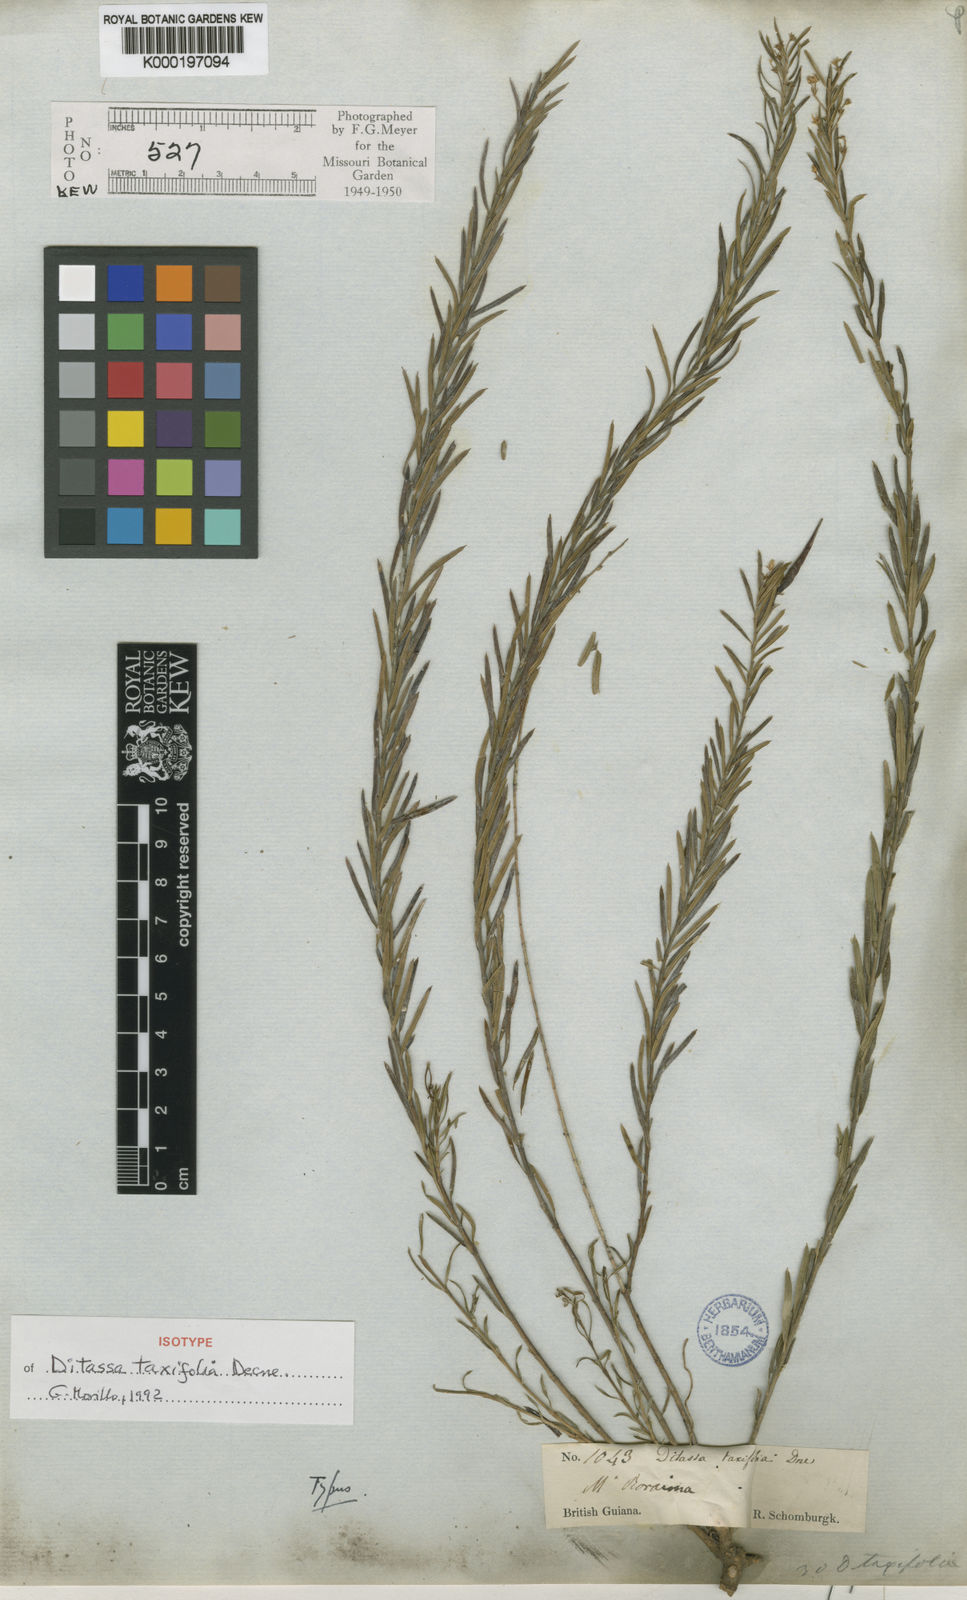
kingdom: Plantae
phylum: Tracheophyta
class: Magnoliopsida
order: Gentianales
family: Apocynaceae
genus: Ditassa
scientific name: Ditassa taxifolia
